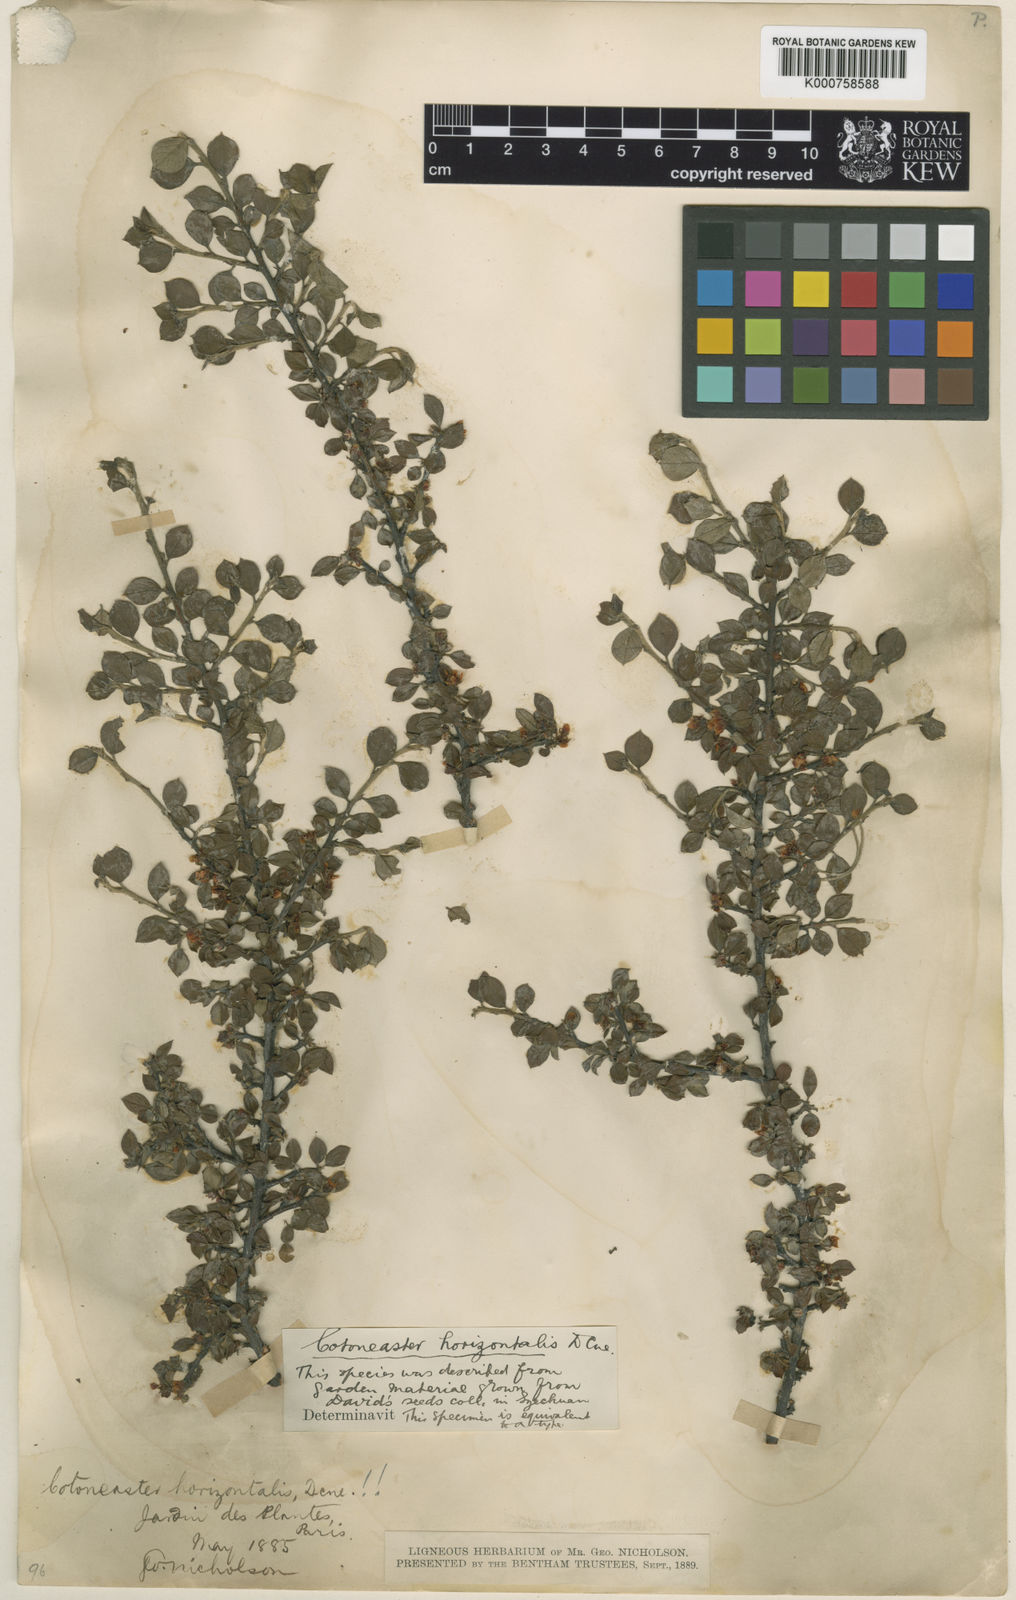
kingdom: Plantae
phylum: Tracheophyta
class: Magnoliopsida
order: Rosales
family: Rosaceae
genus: Cotoneaster
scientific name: Cotoneaster horizontalis
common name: Wall cotoneaster
